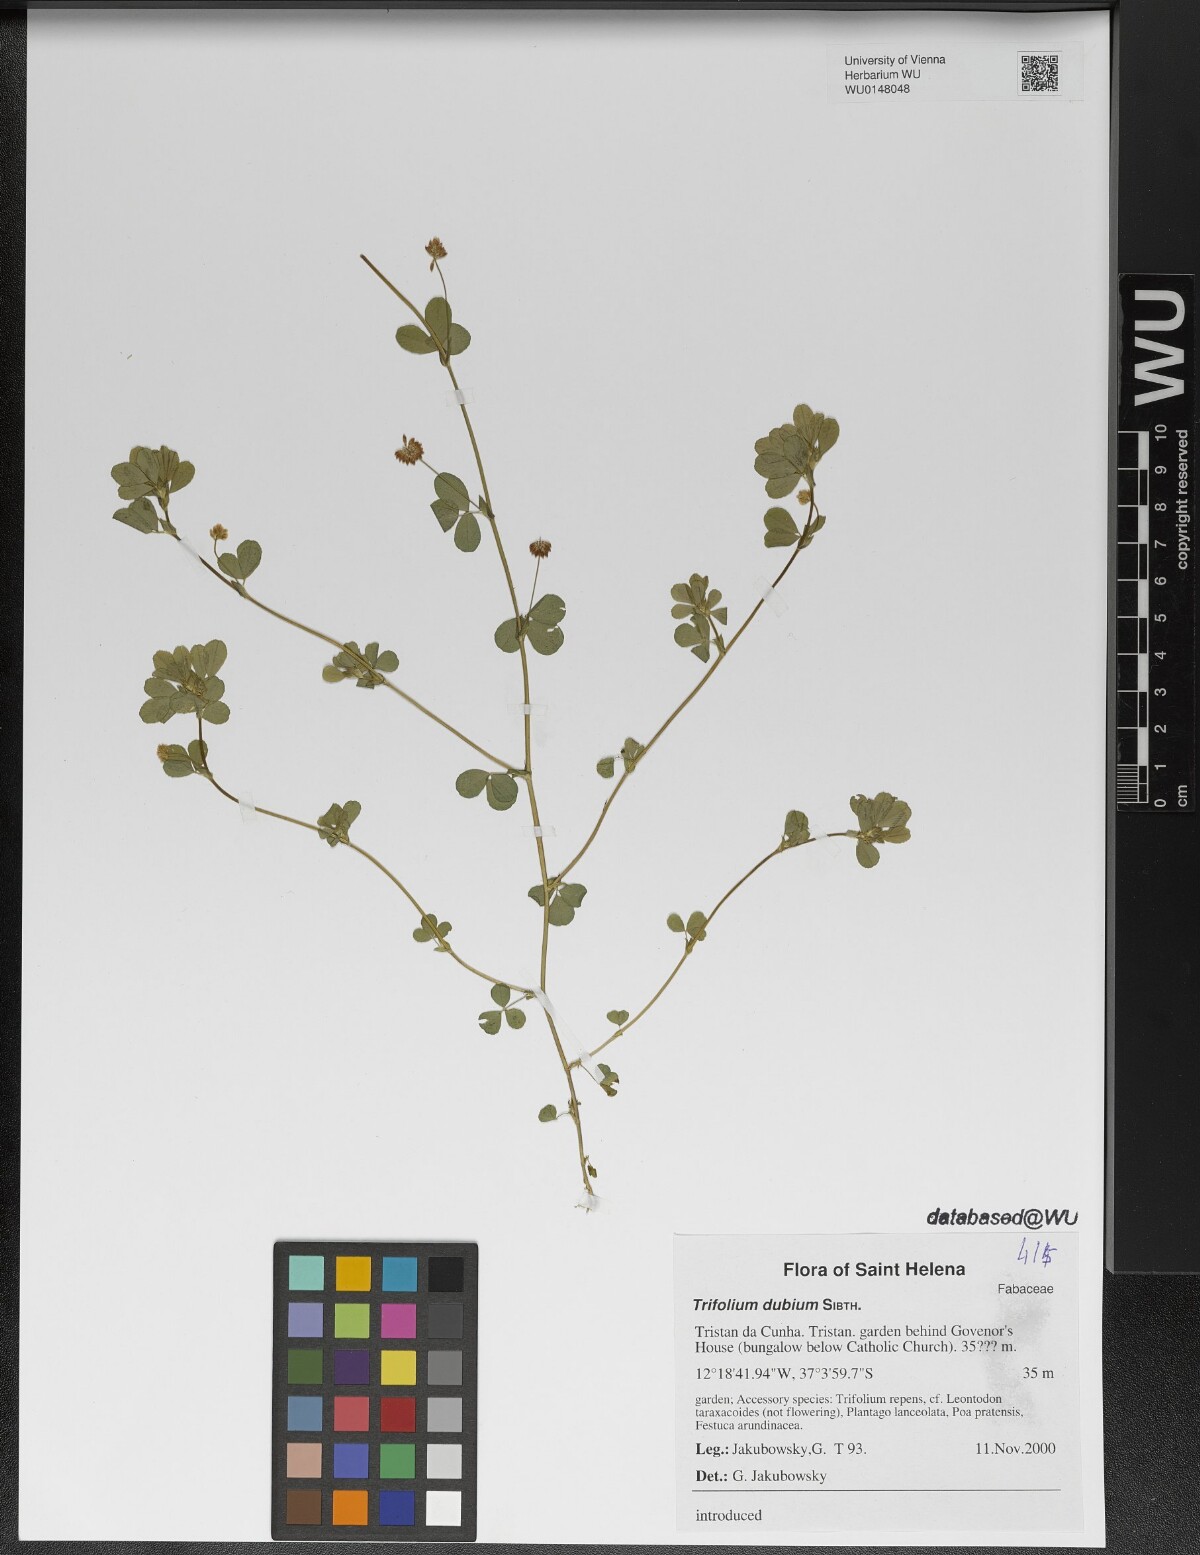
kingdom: Plantae
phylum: Tracheophyta
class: Magnoliopsida
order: Fabales
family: Fabaceae
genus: Trifolium
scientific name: Trifolium dubium
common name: Suckling clover
